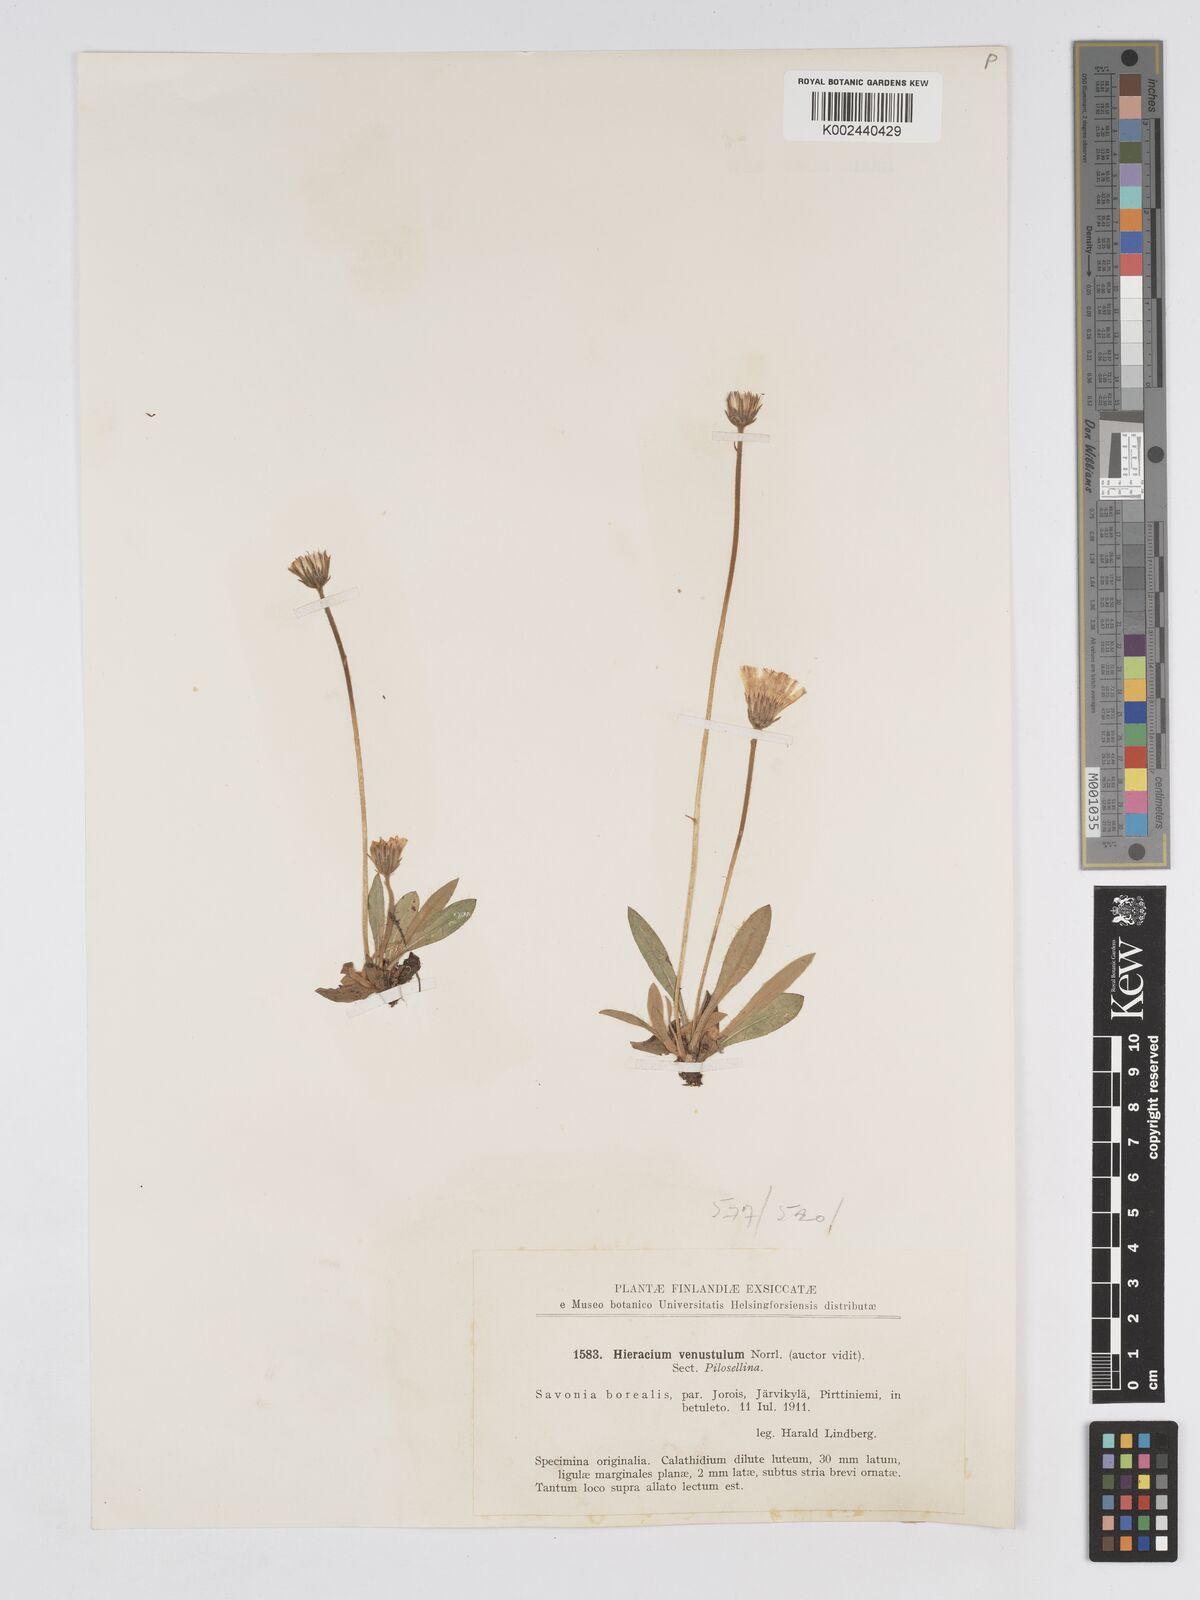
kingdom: Plantae
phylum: Tracheophyta
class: Magnoliopsida
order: Asterales
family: Asteraceae
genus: Pilosella
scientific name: Pilosella officinarum
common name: Mouse-ear hawkweed
